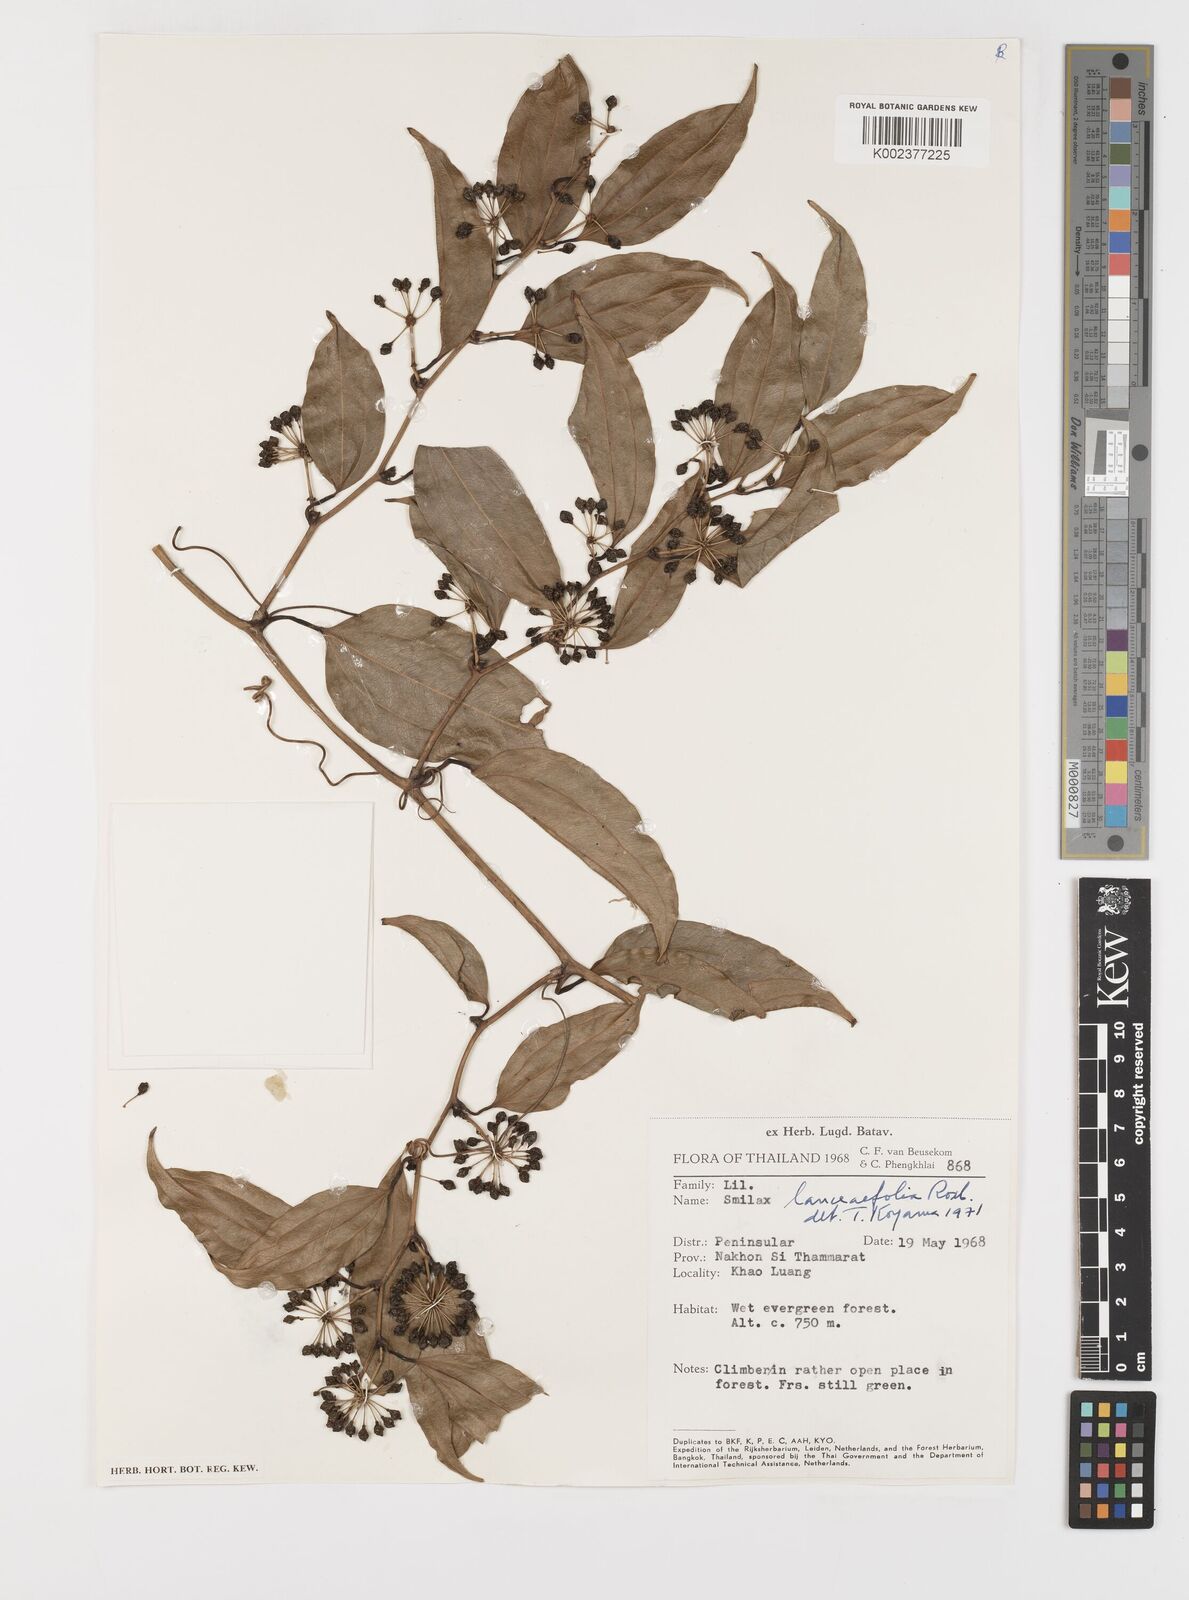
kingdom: Plantae
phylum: Tracheophyta
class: Liliopsida
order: Liliales
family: Smilacaceae
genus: Smilax
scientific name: Smilax lanceifolia
